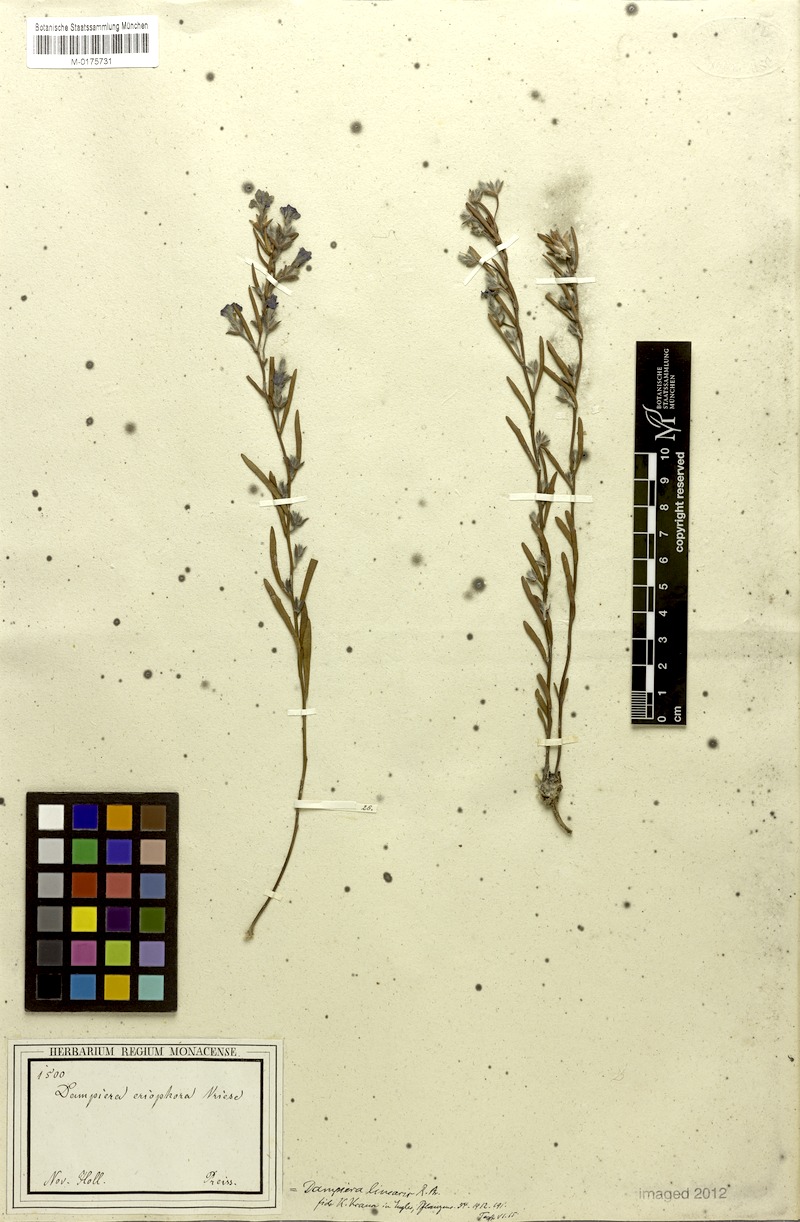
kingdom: Plantae
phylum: Tracheophyta
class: Magnoliopsida
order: Asterales
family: Goodeniaceae
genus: Dampiera
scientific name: Dampiera linearis
